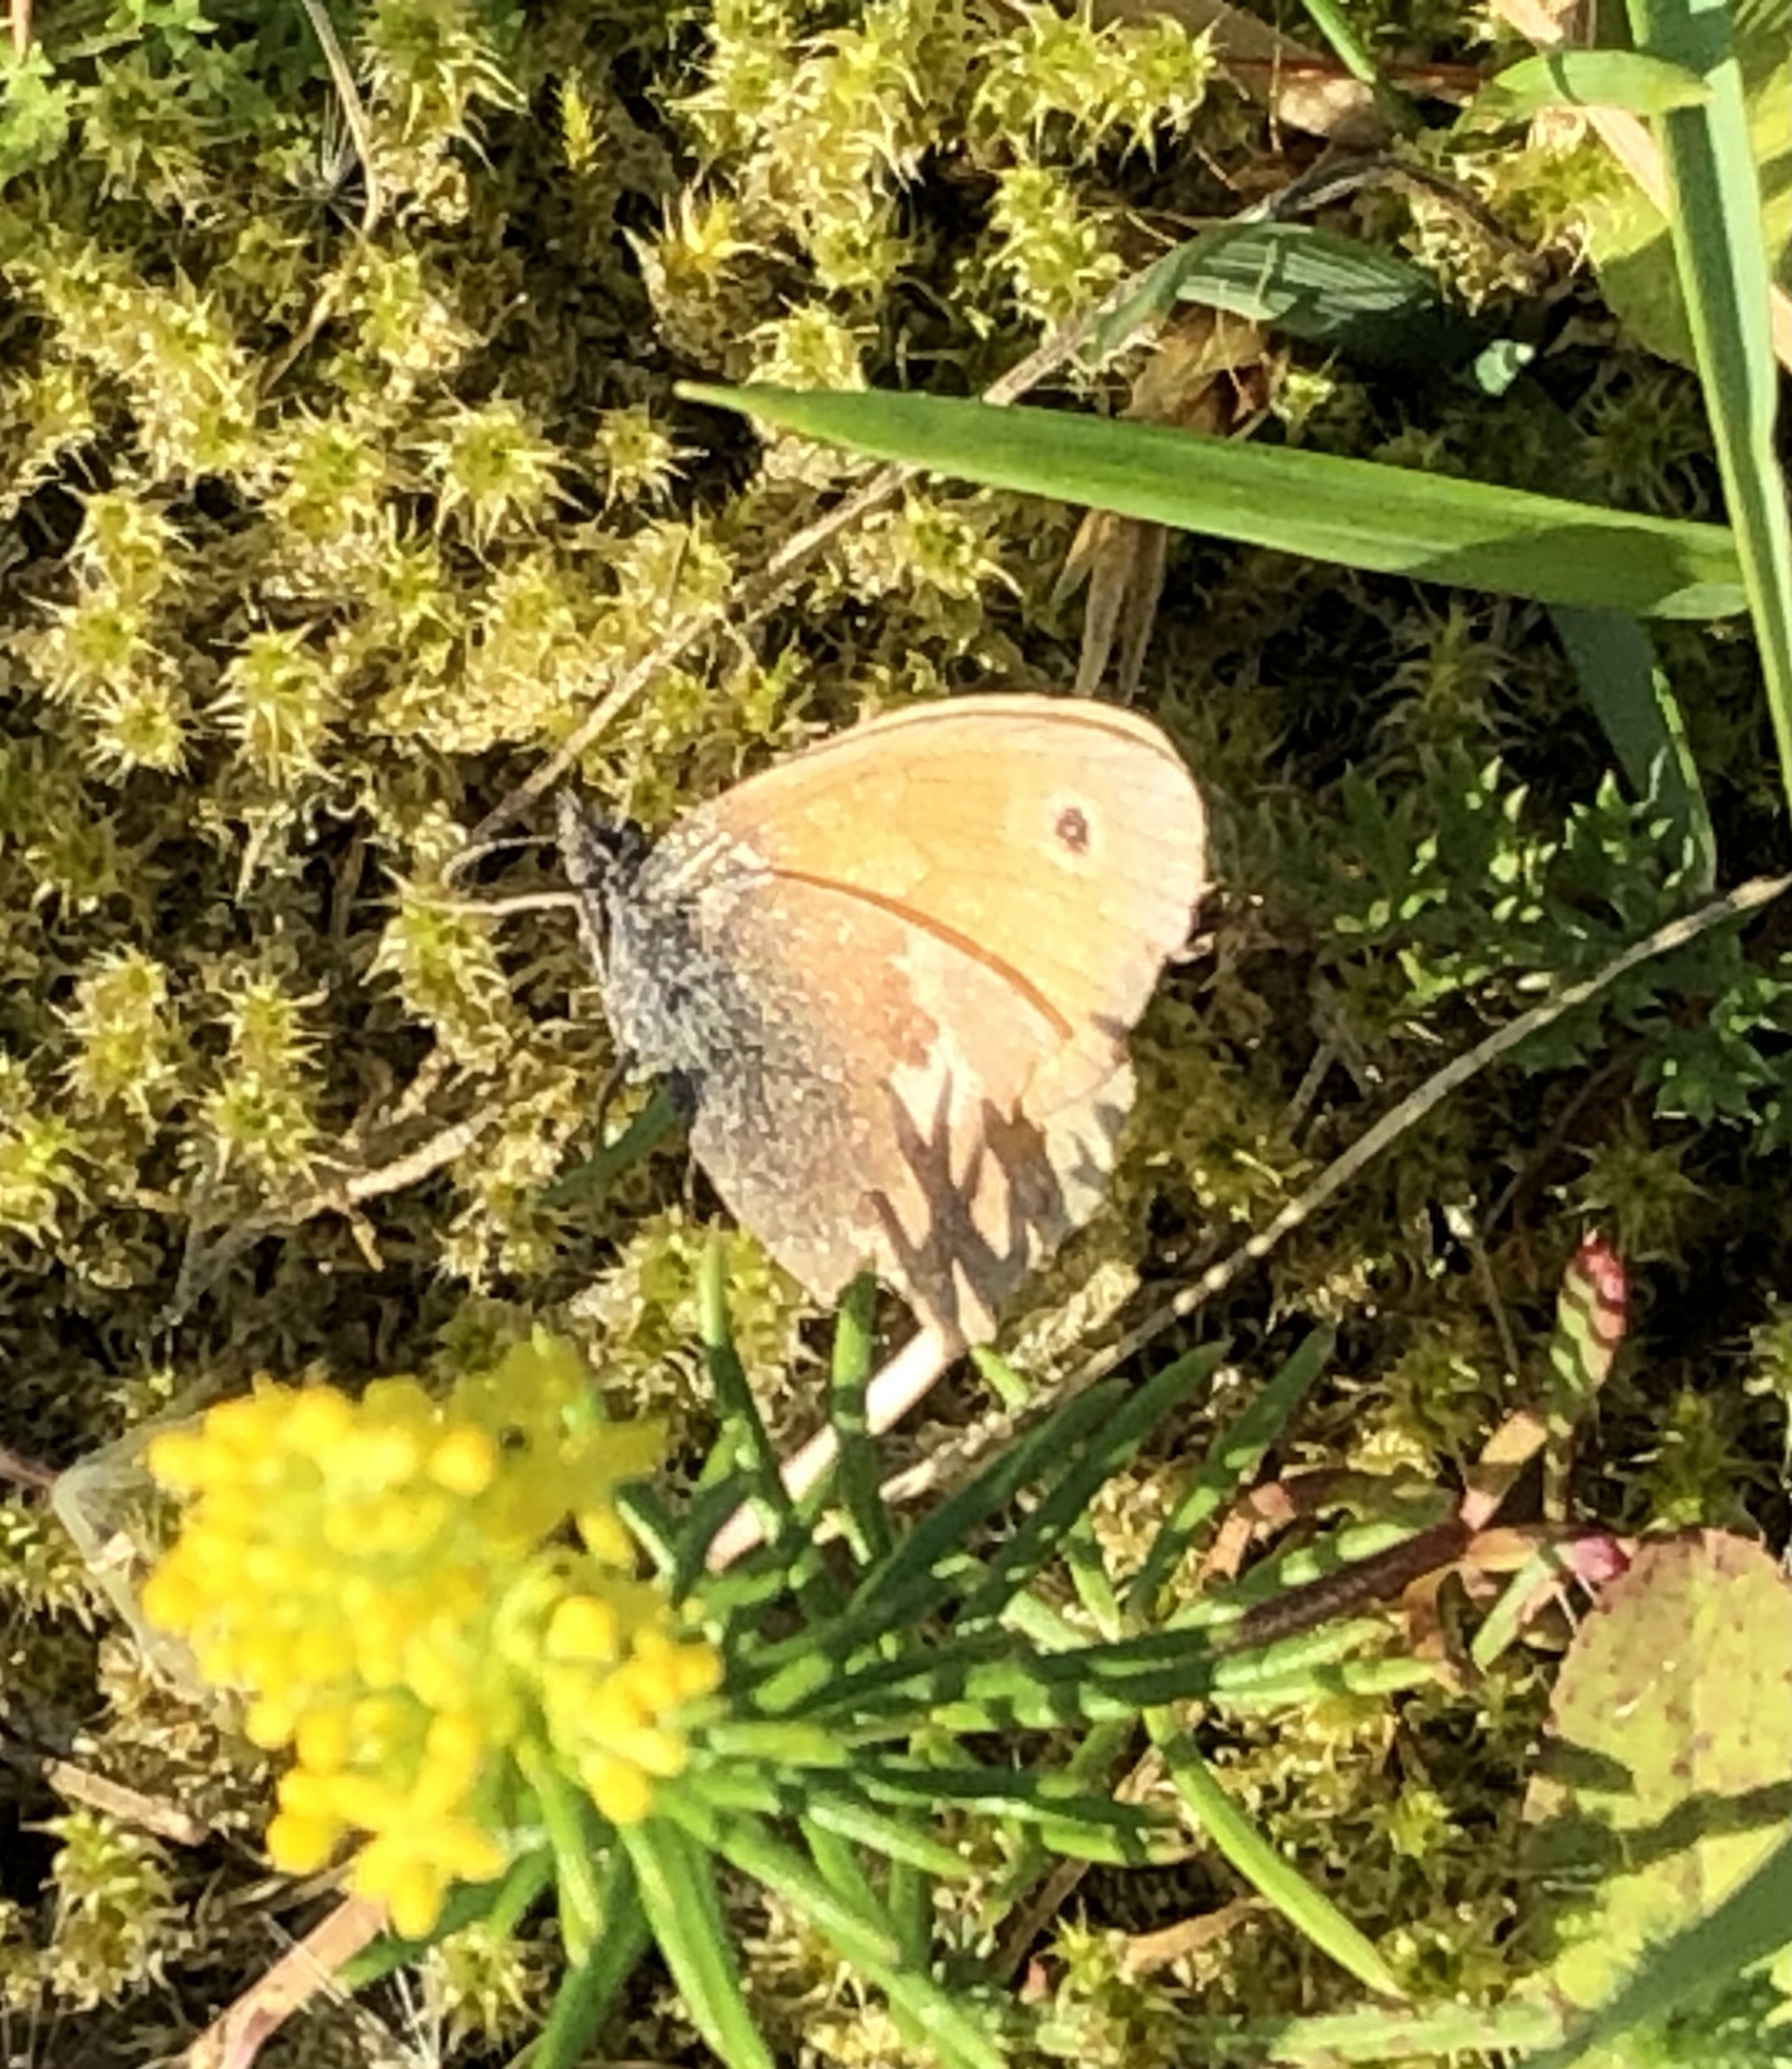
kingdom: Animalia
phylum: Arthropoda
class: Insecta
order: Lepidoptera
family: Nymphalidae
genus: Coenonympha
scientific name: Coenonympha pamphilus
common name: Okkergul randøje
